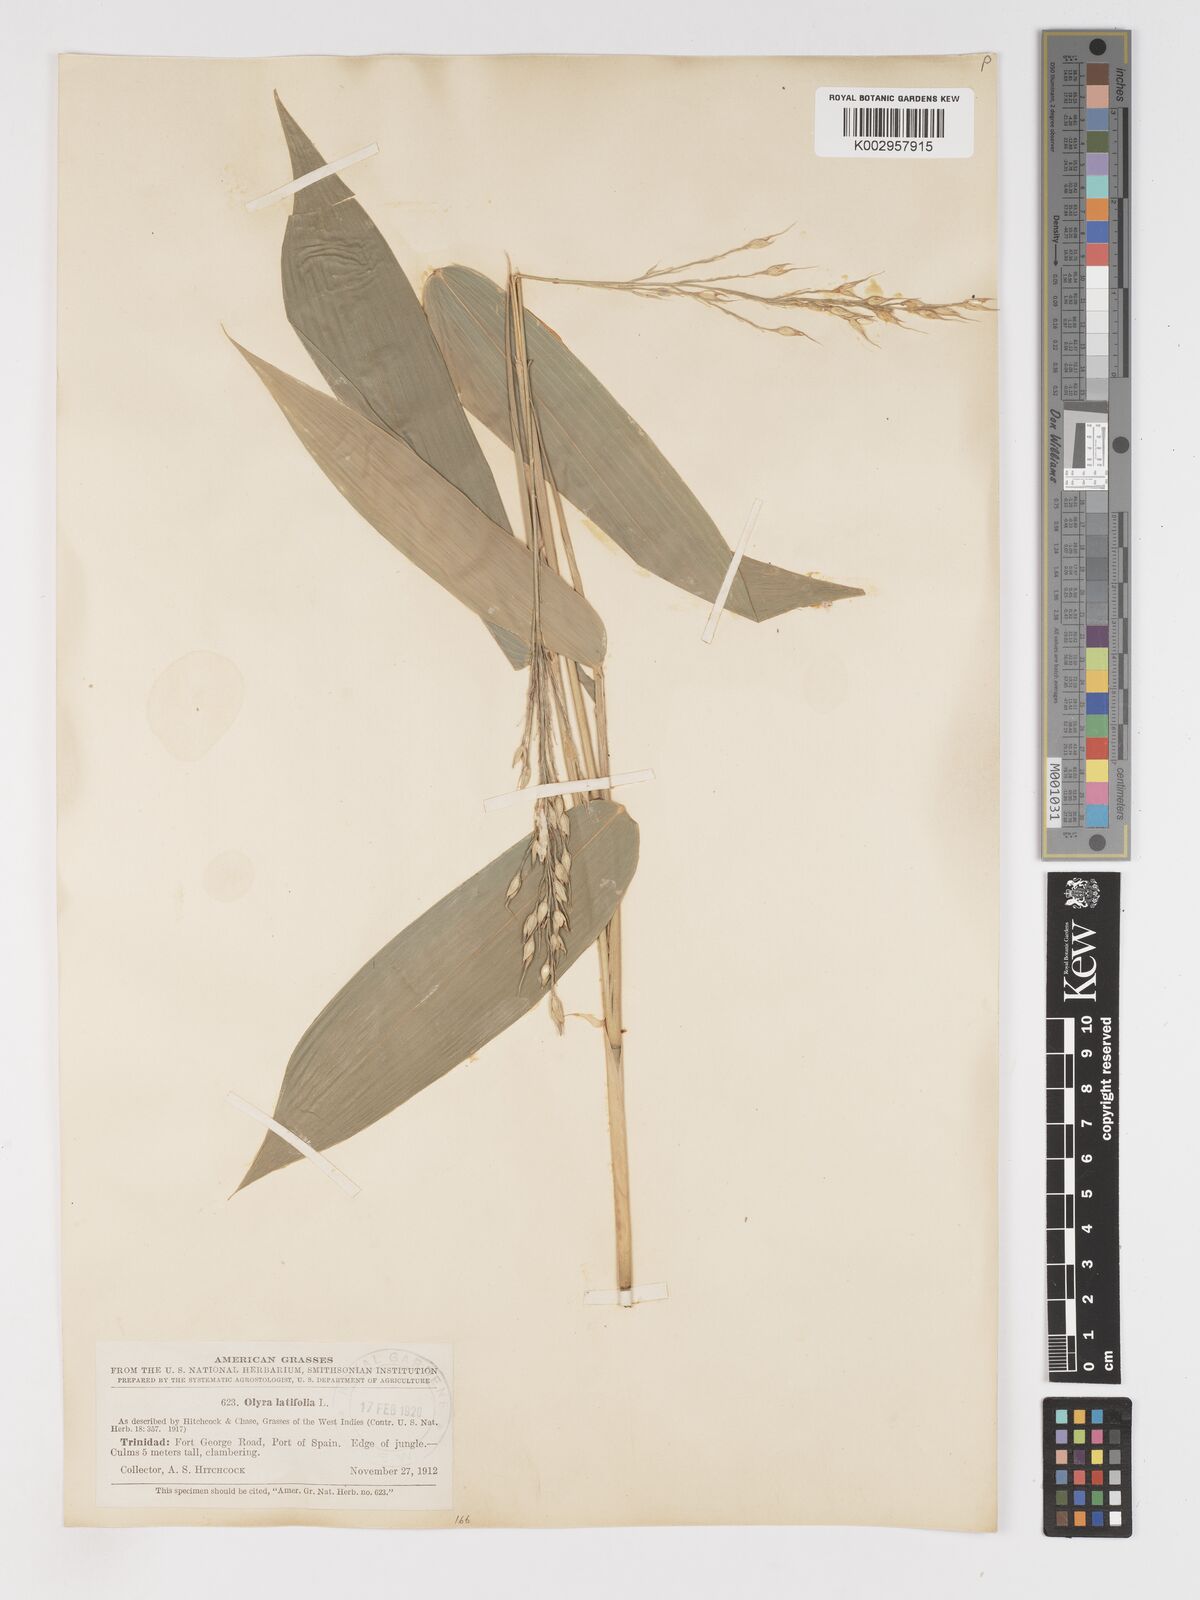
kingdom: Plantae
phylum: Tracheophyta
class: Liliopsida
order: Poales
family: Poaceae
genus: Olyra
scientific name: Olyra latifolia
